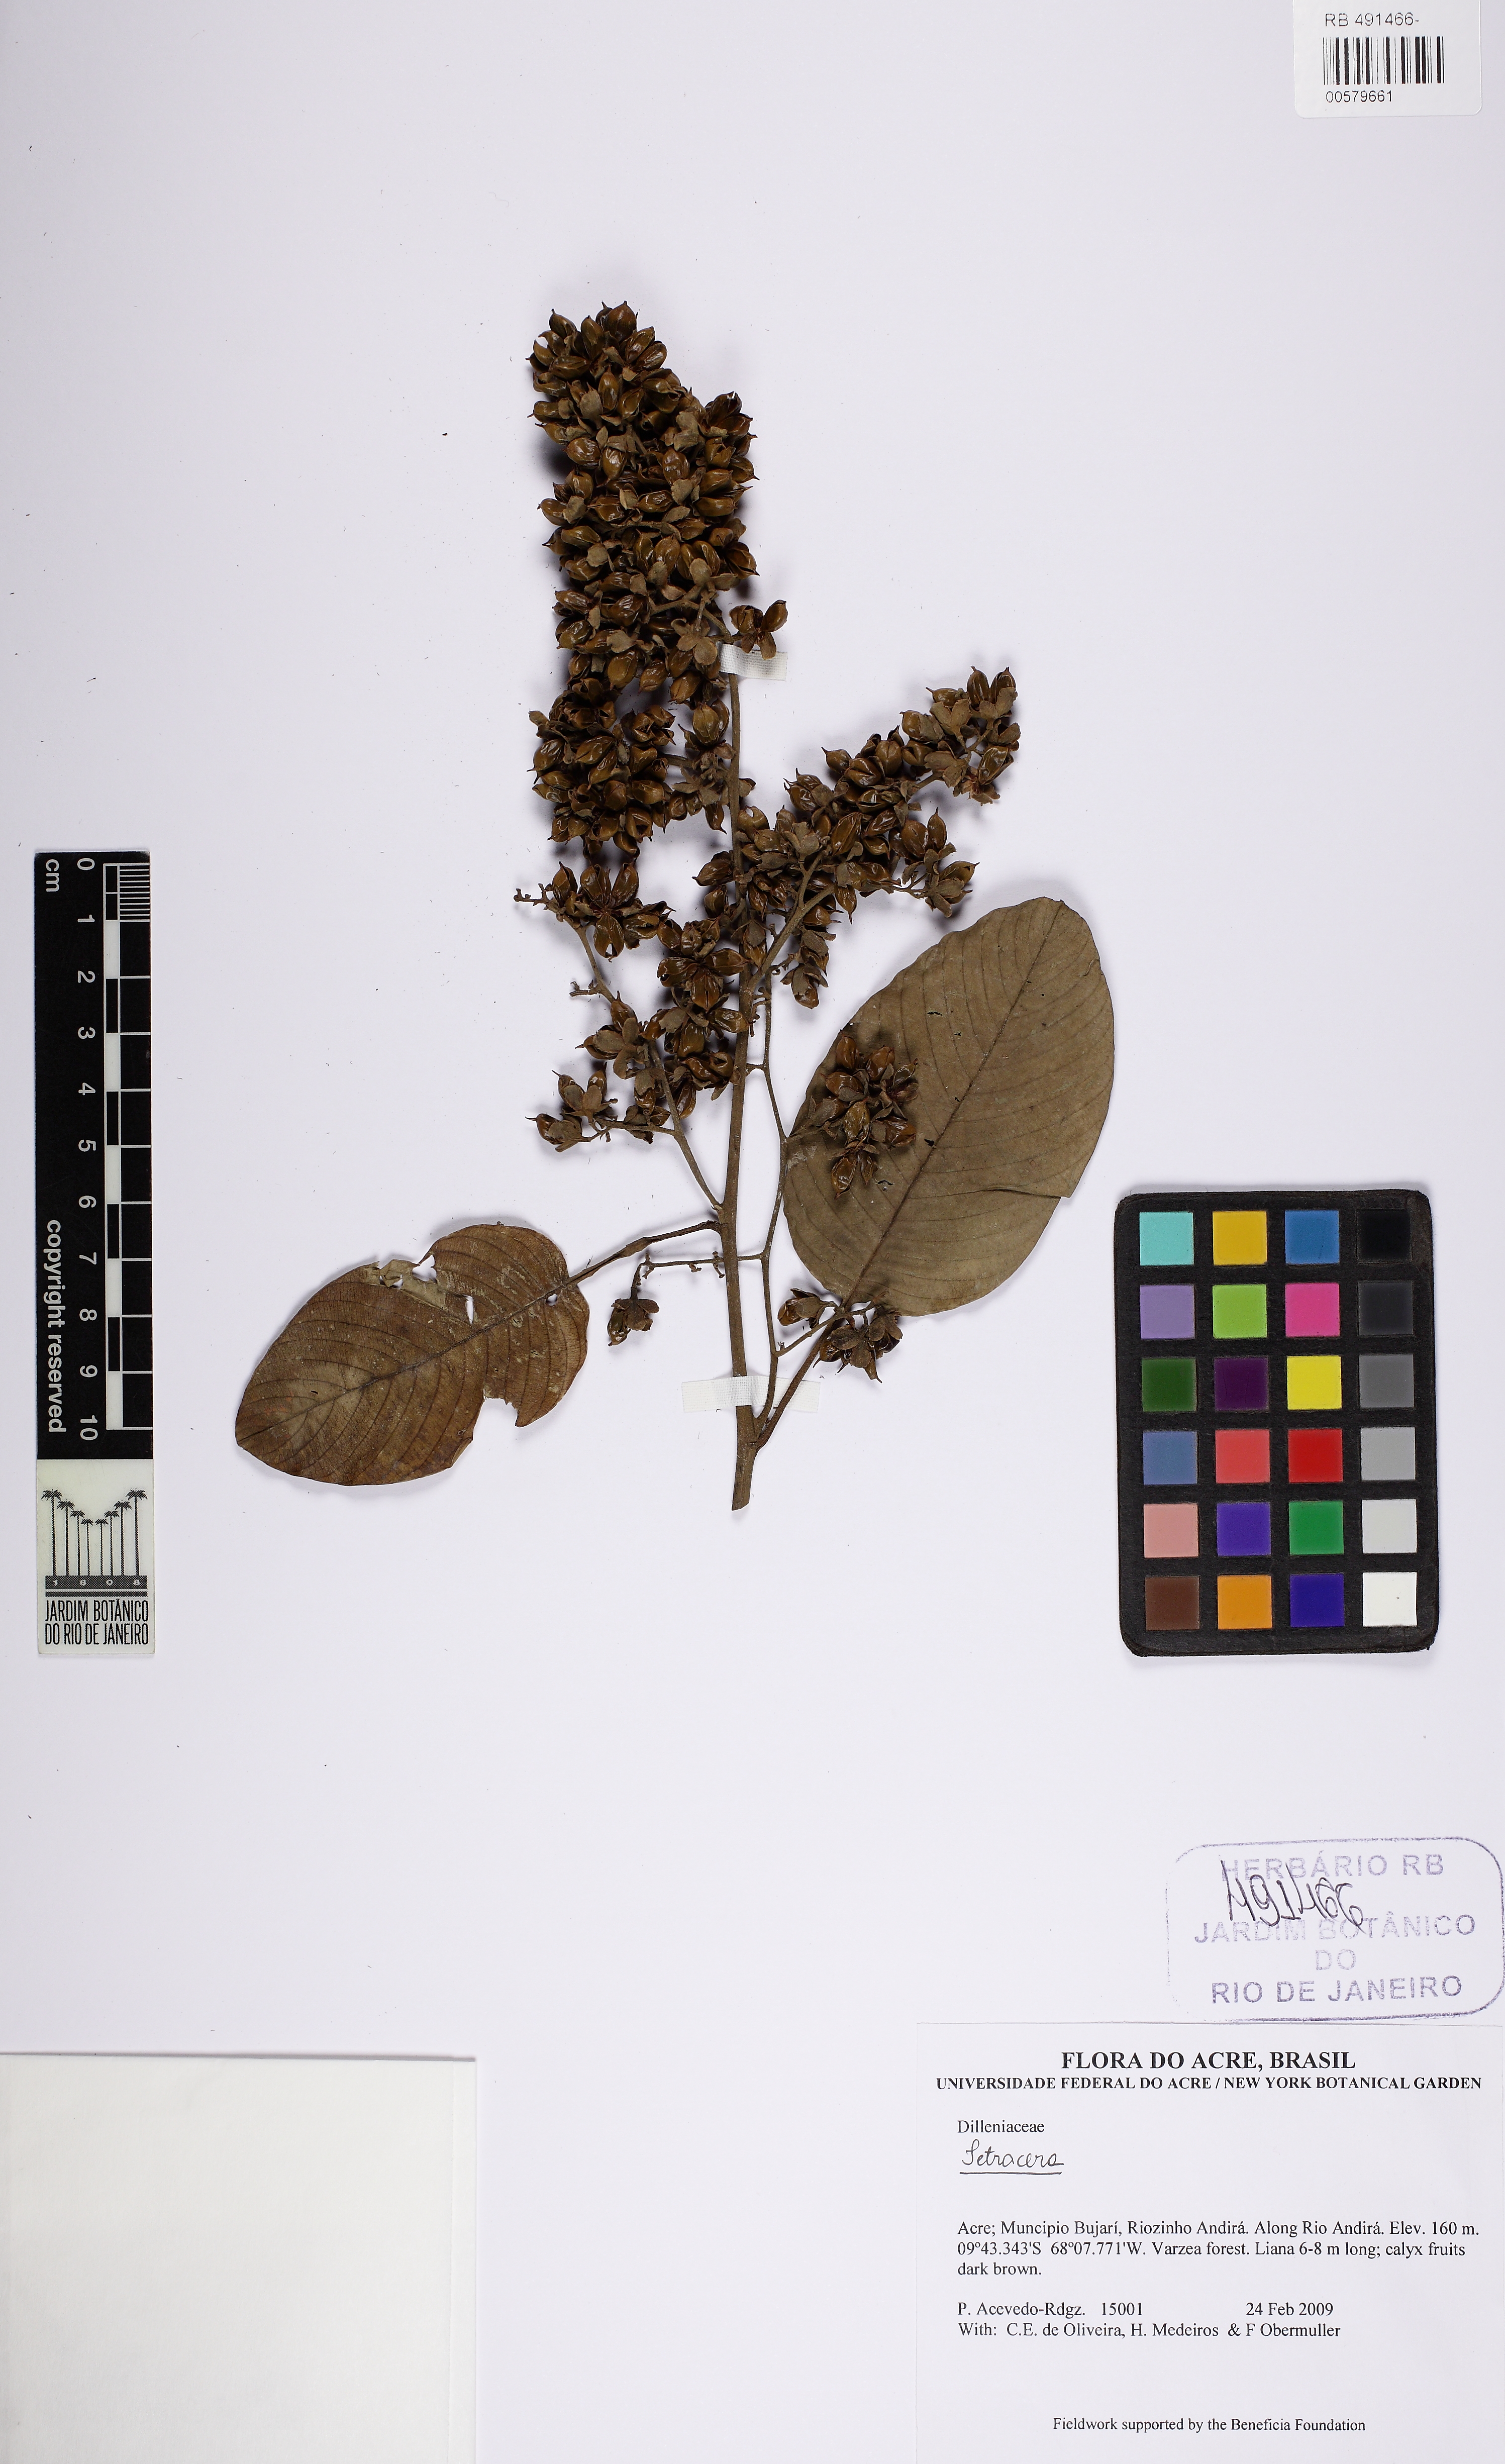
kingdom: Plantae
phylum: Tracheophyta
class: Magnoliopsida
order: Dilleniales
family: Dilleniaceae
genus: Tetracera
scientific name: Tetracera willdenowiana
